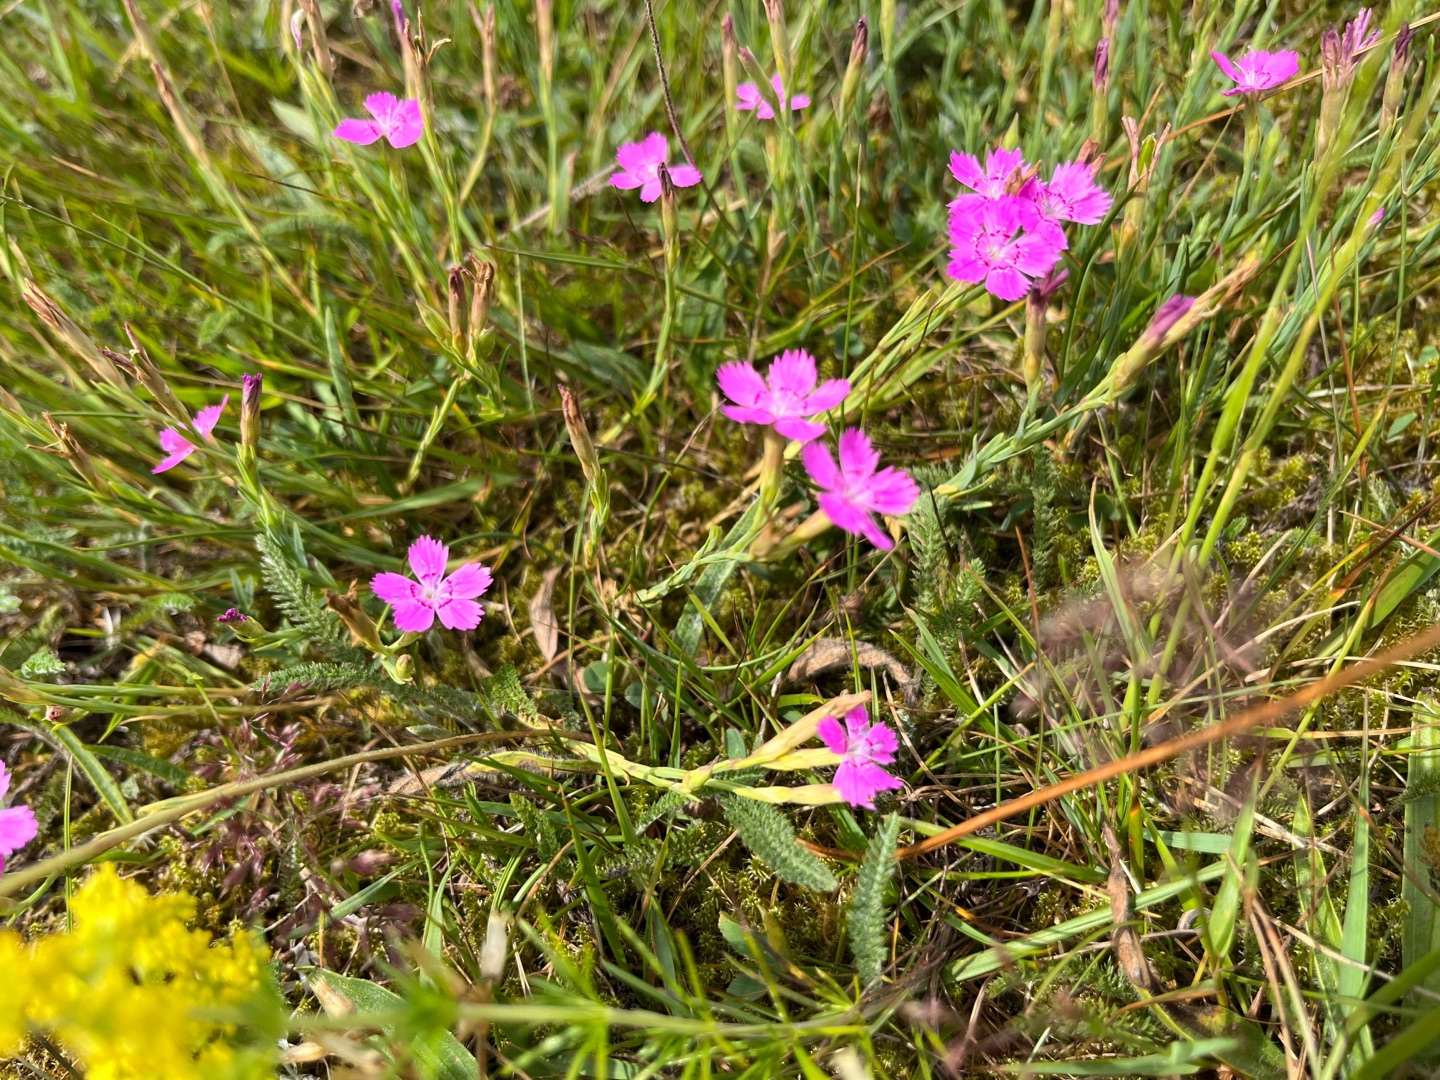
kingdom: Plantae
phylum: Tracheophyta
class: Magnoliopsida
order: Caryophyllales
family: Caryophyllaceae
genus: Dianthus
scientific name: Dianthus deltoides
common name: Bakke-nellike
